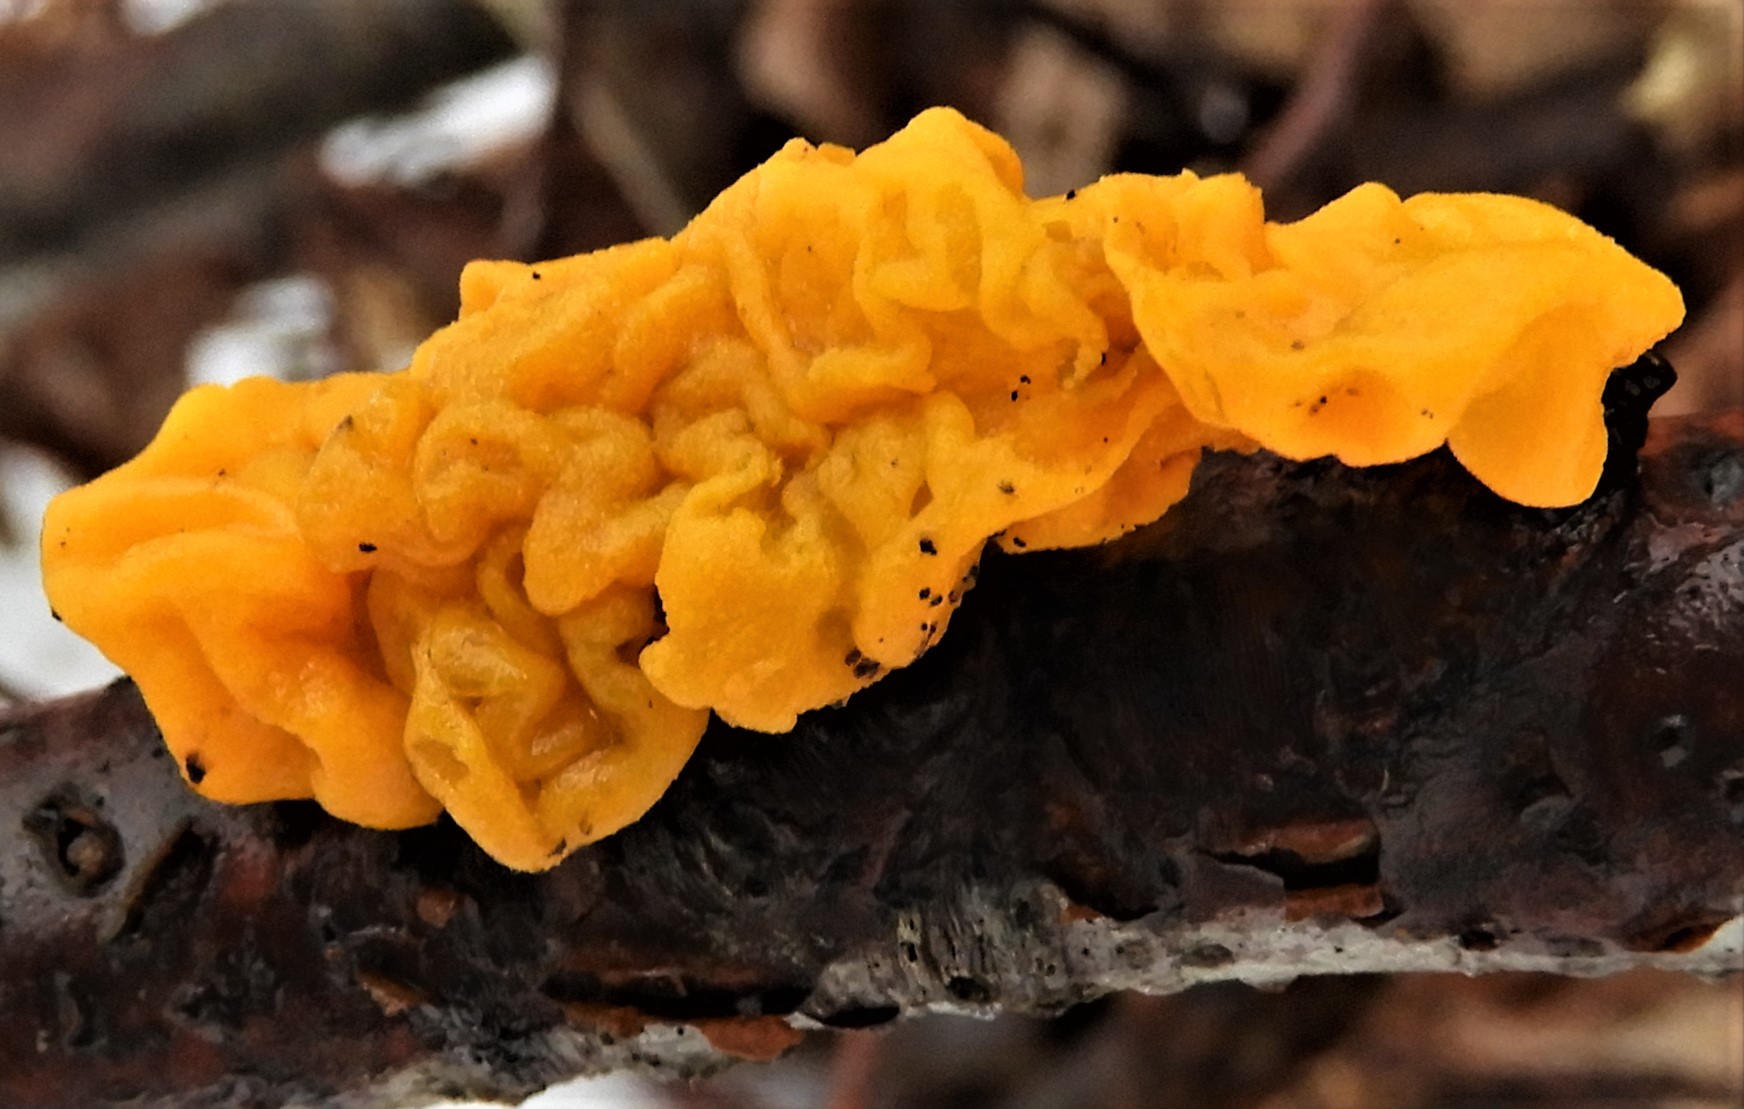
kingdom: Fungi
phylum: Basidiomycota
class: Tremellomycetes
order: Tremellales
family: Tremellaceae
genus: Tremella
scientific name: Tremella mesenterica
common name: gul bævresvamp
